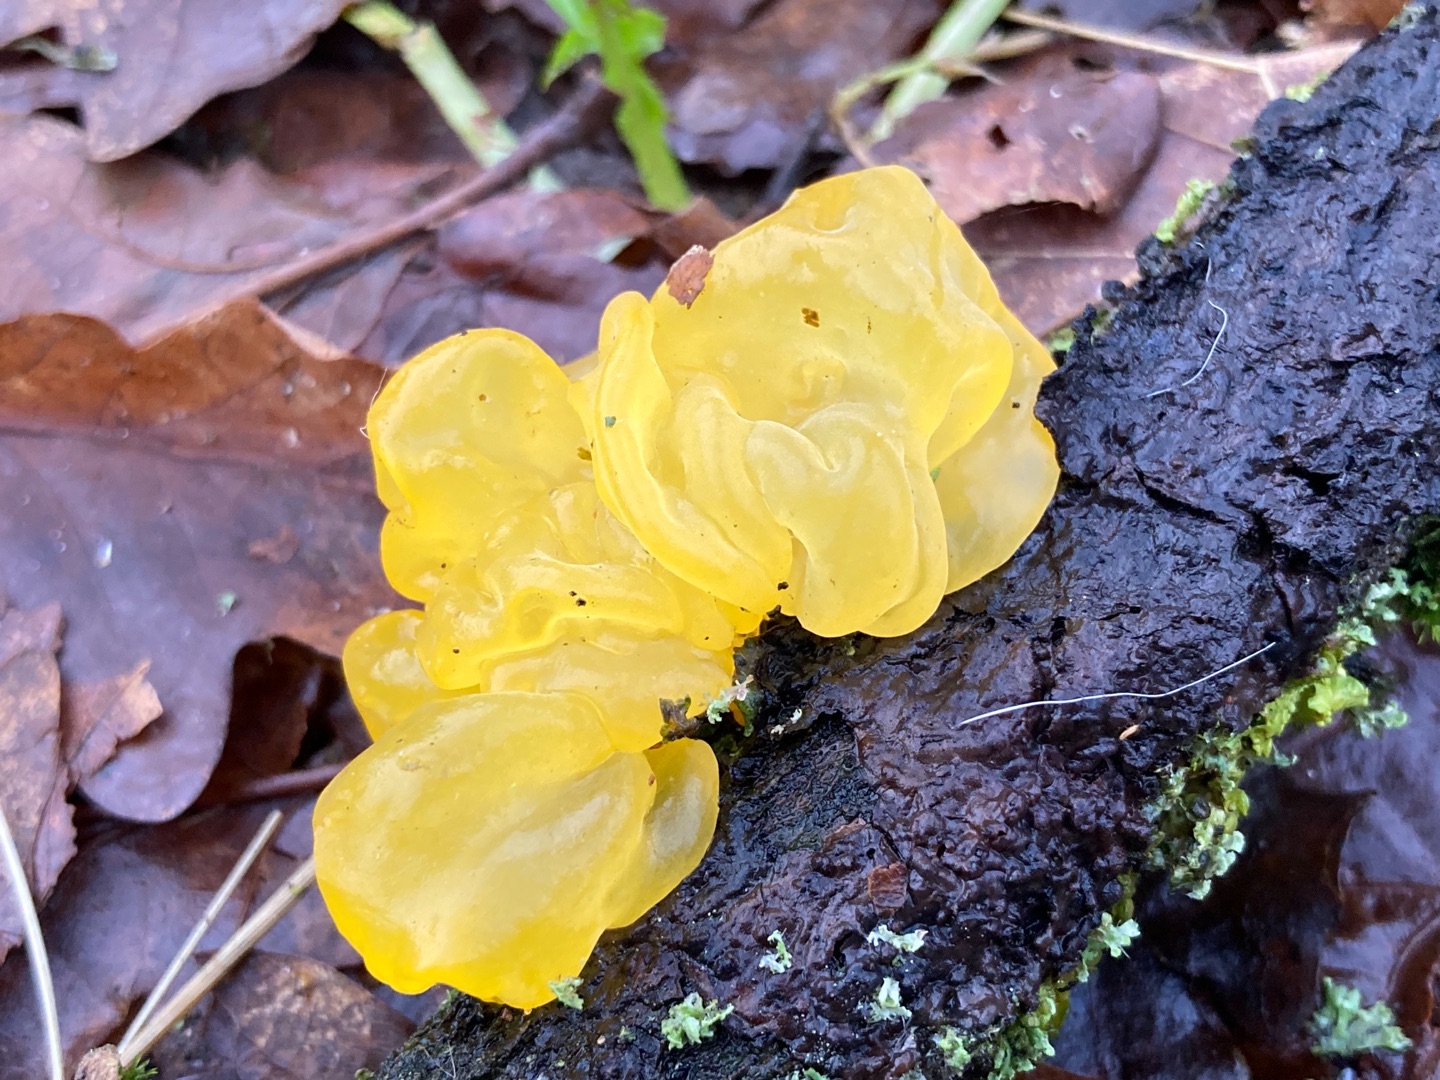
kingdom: Fungi
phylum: Basidiomycota
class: Tremellomycetes
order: Tremellales
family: Tremellaceae
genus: Tremella
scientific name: Tremella mesenterica
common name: Gul bævresvamp
